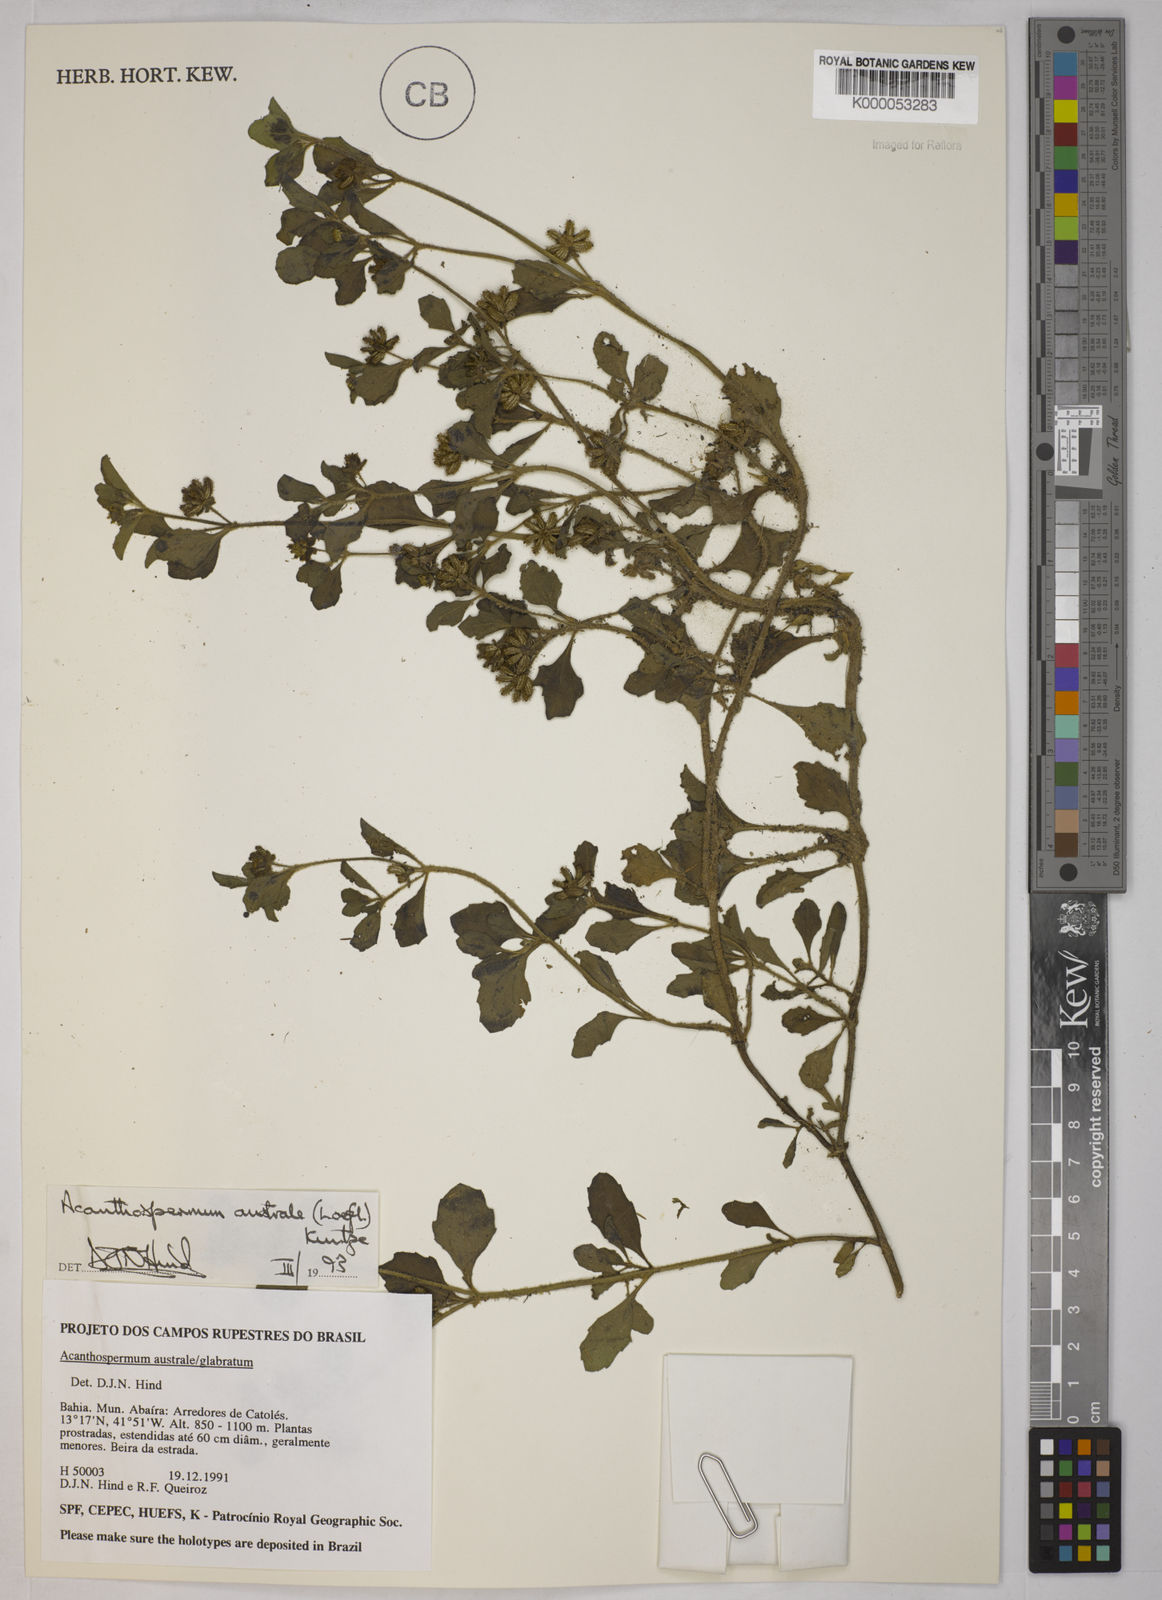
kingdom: Plantae
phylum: Tracheophyta
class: Magnoliopsida
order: Asterales
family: Asteraceae
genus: Acanthospermum
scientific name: Acanthospermum australe
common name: Paraguayan starbur
